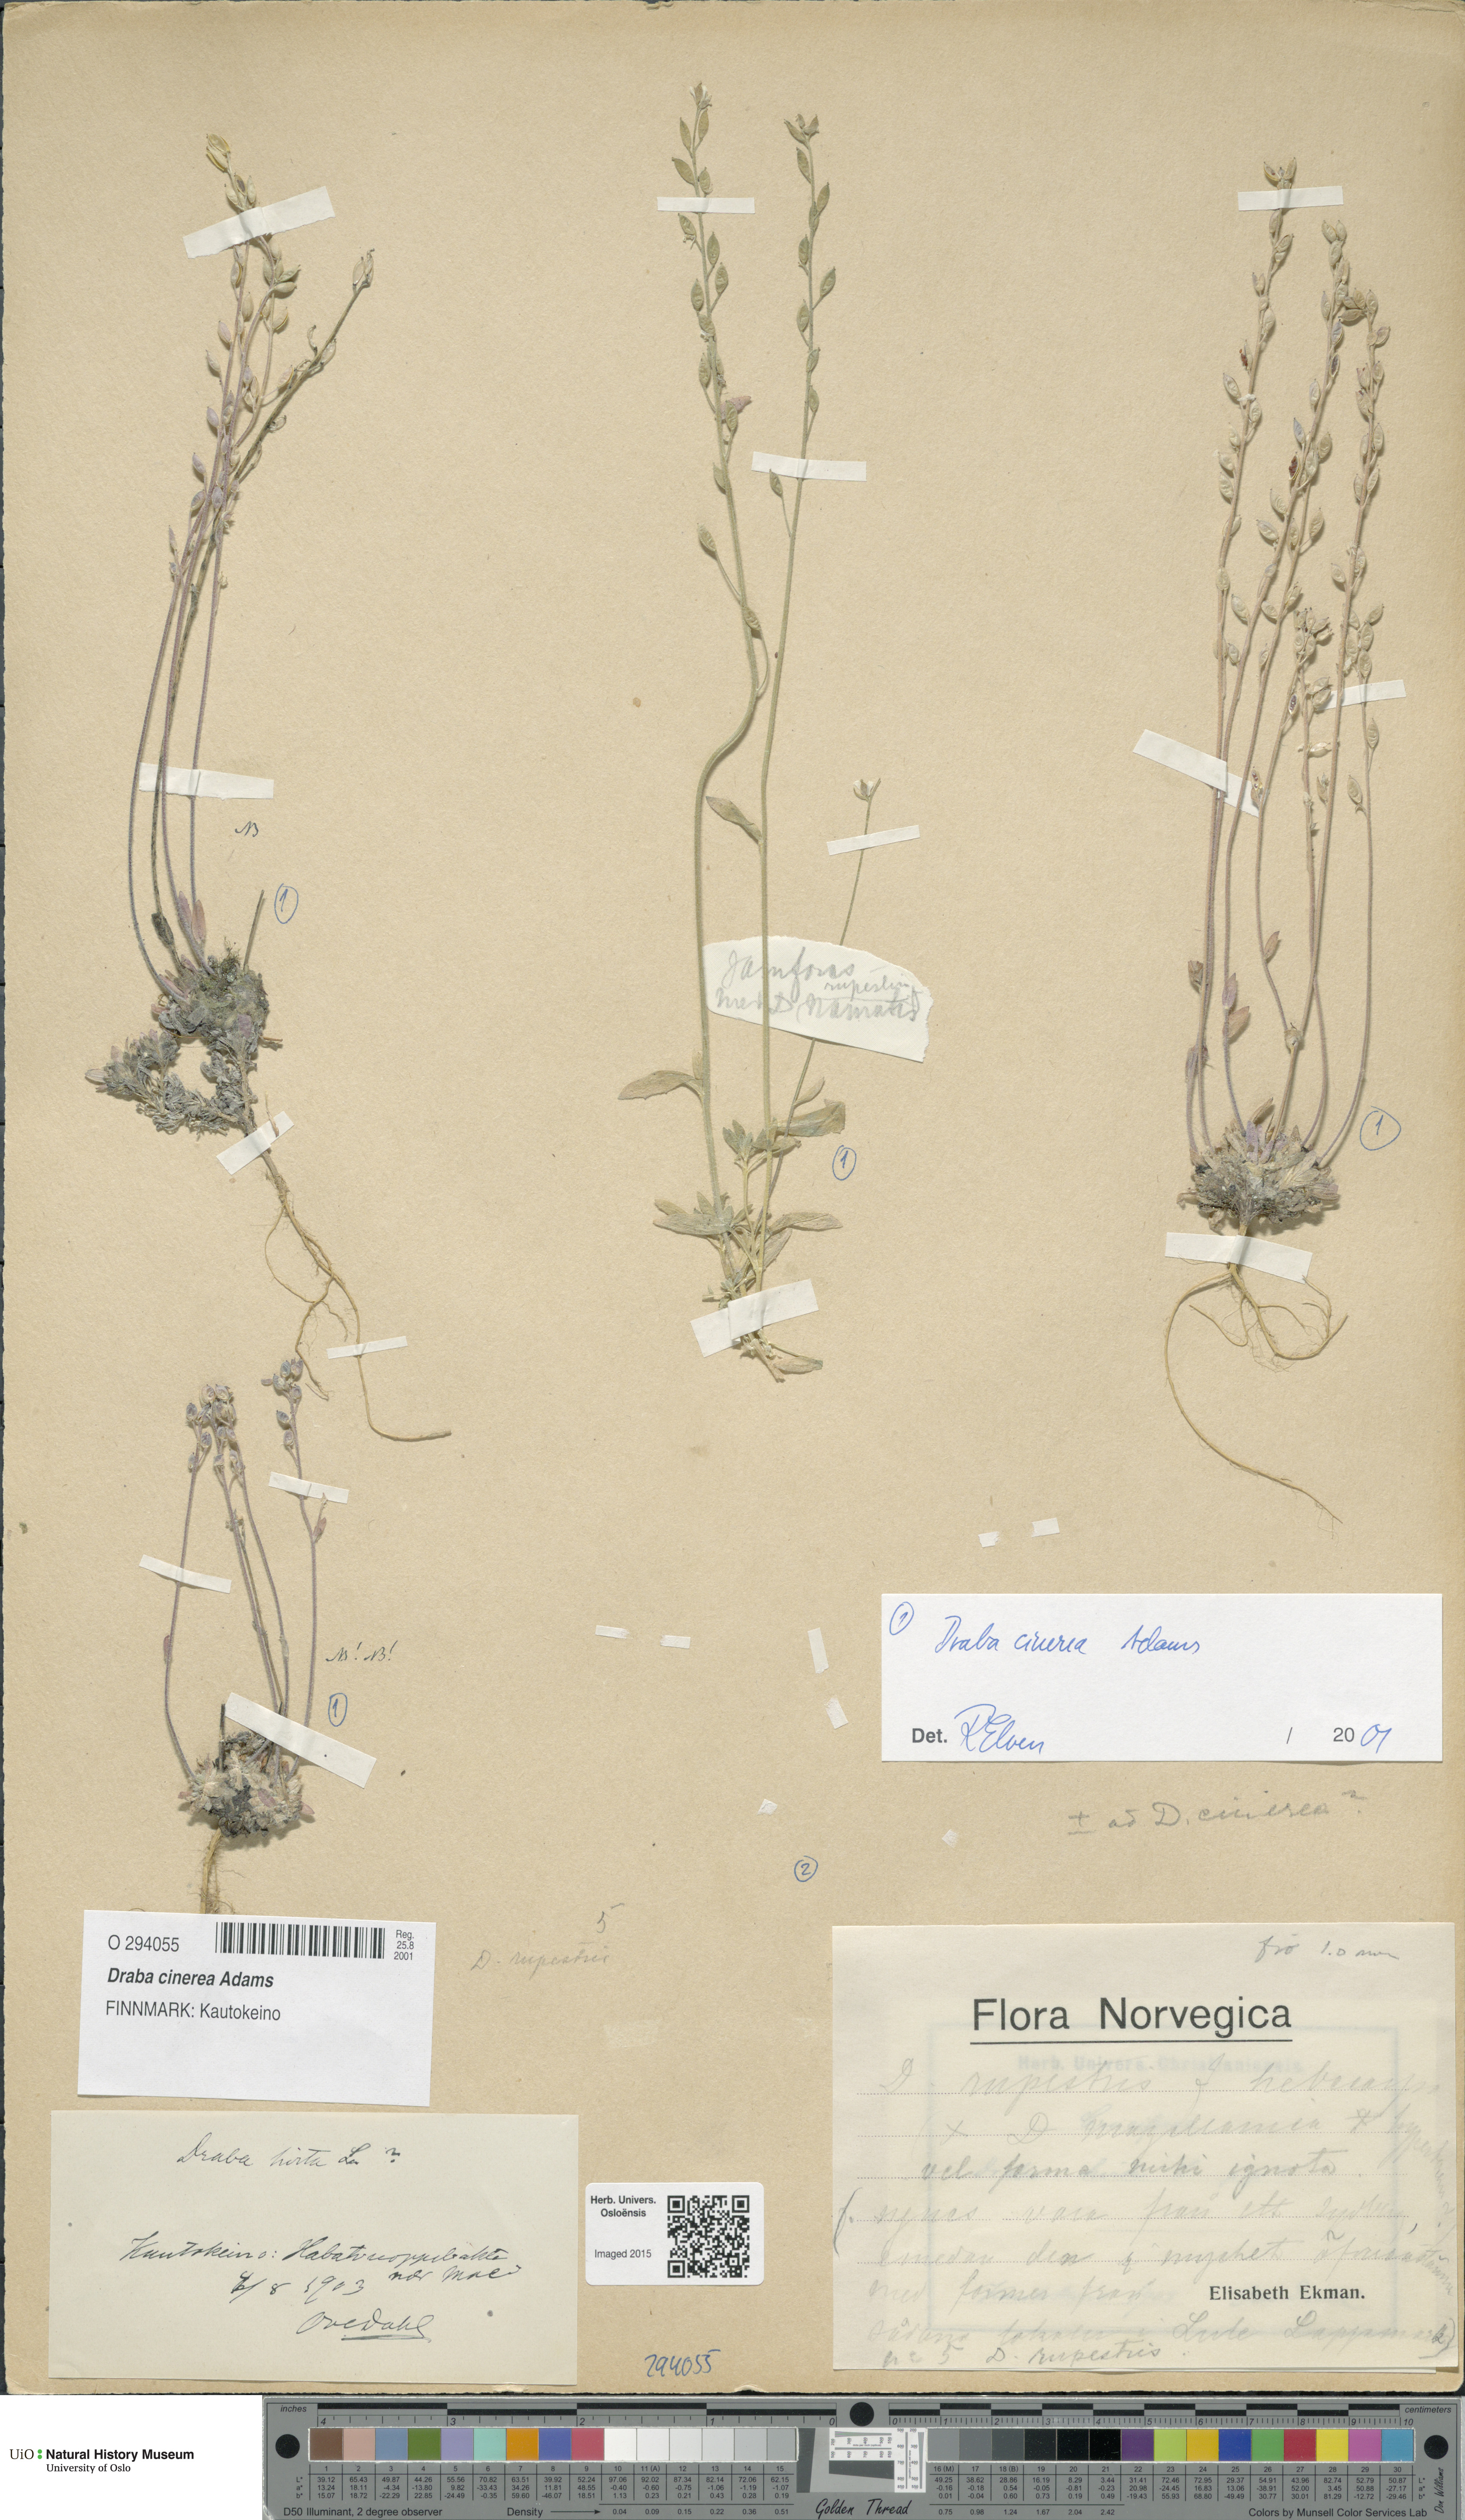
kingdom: Plantae
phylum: Tracheophyta
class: Magnoliopsida
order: Brassicales
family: Brassicaceae
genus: Draba
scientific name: Draba arctica
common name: Arctic draba
